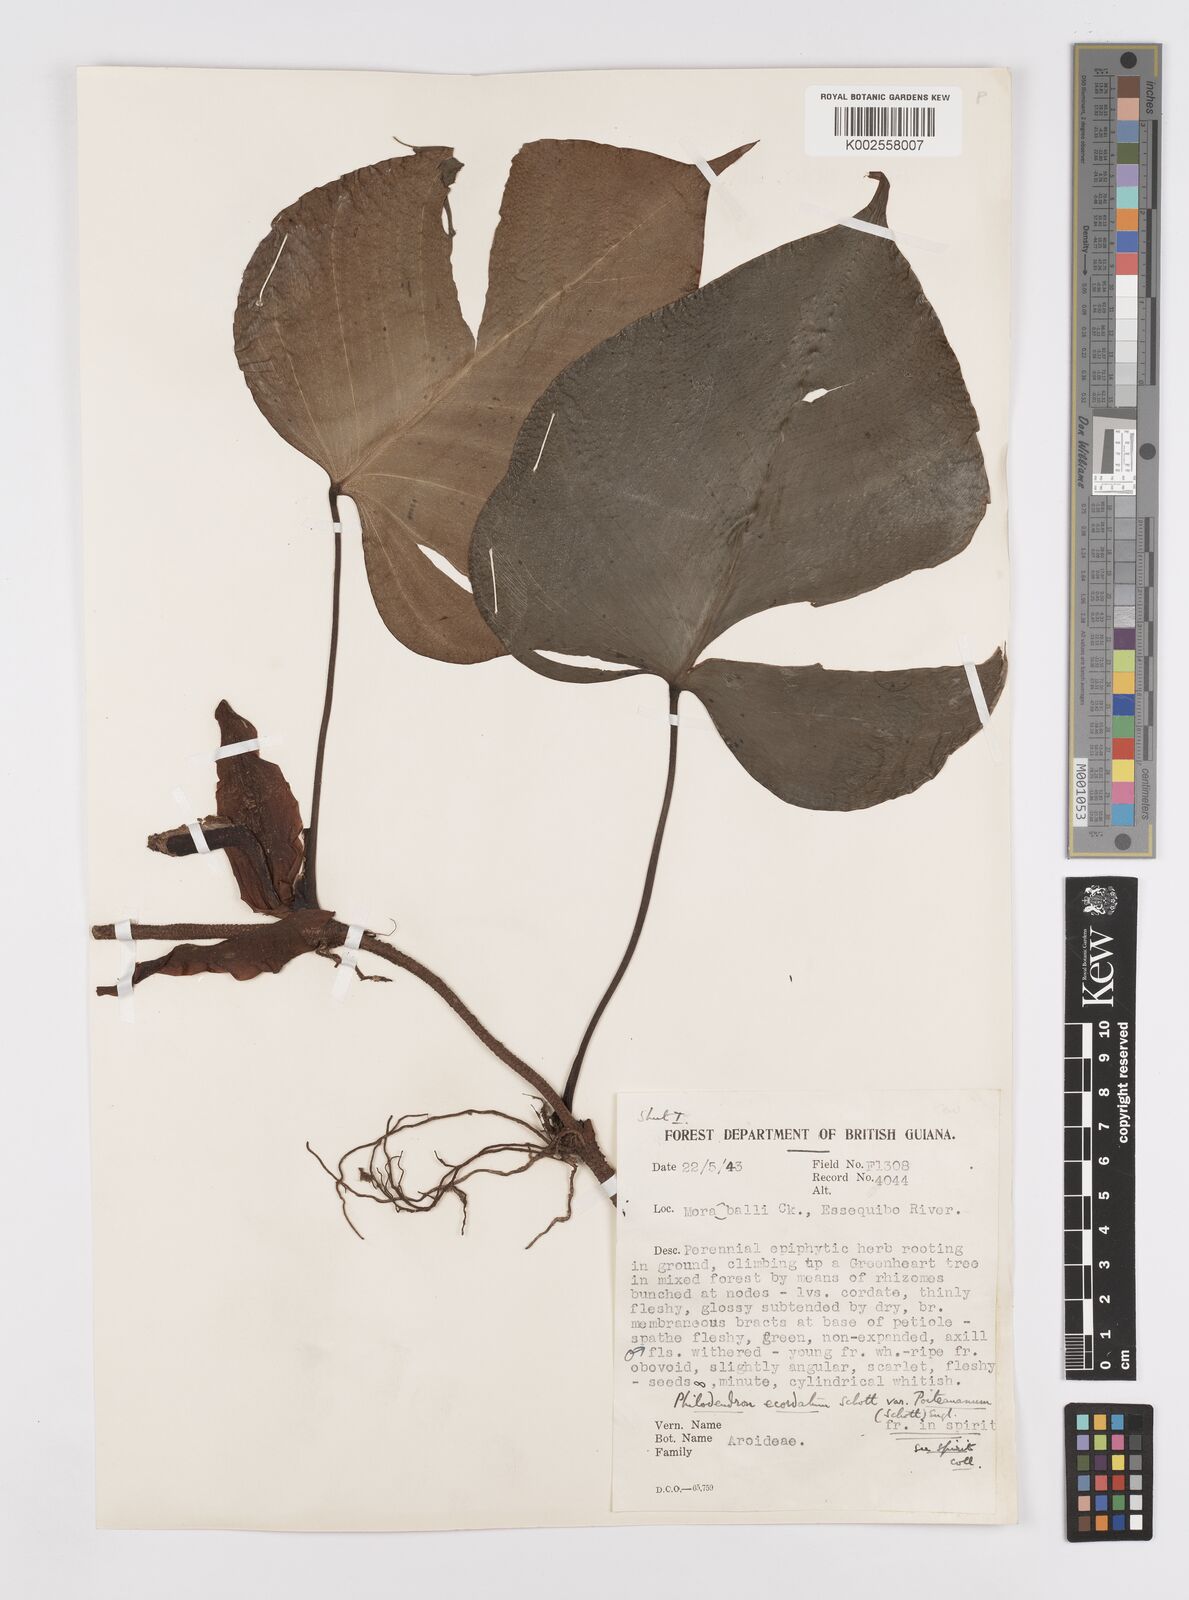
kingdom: Plantae
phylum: Tracheophyta
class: Liliopsida
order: Alismatales
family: Araceae
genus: Philodendron
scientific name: Philodendron ecordatum
